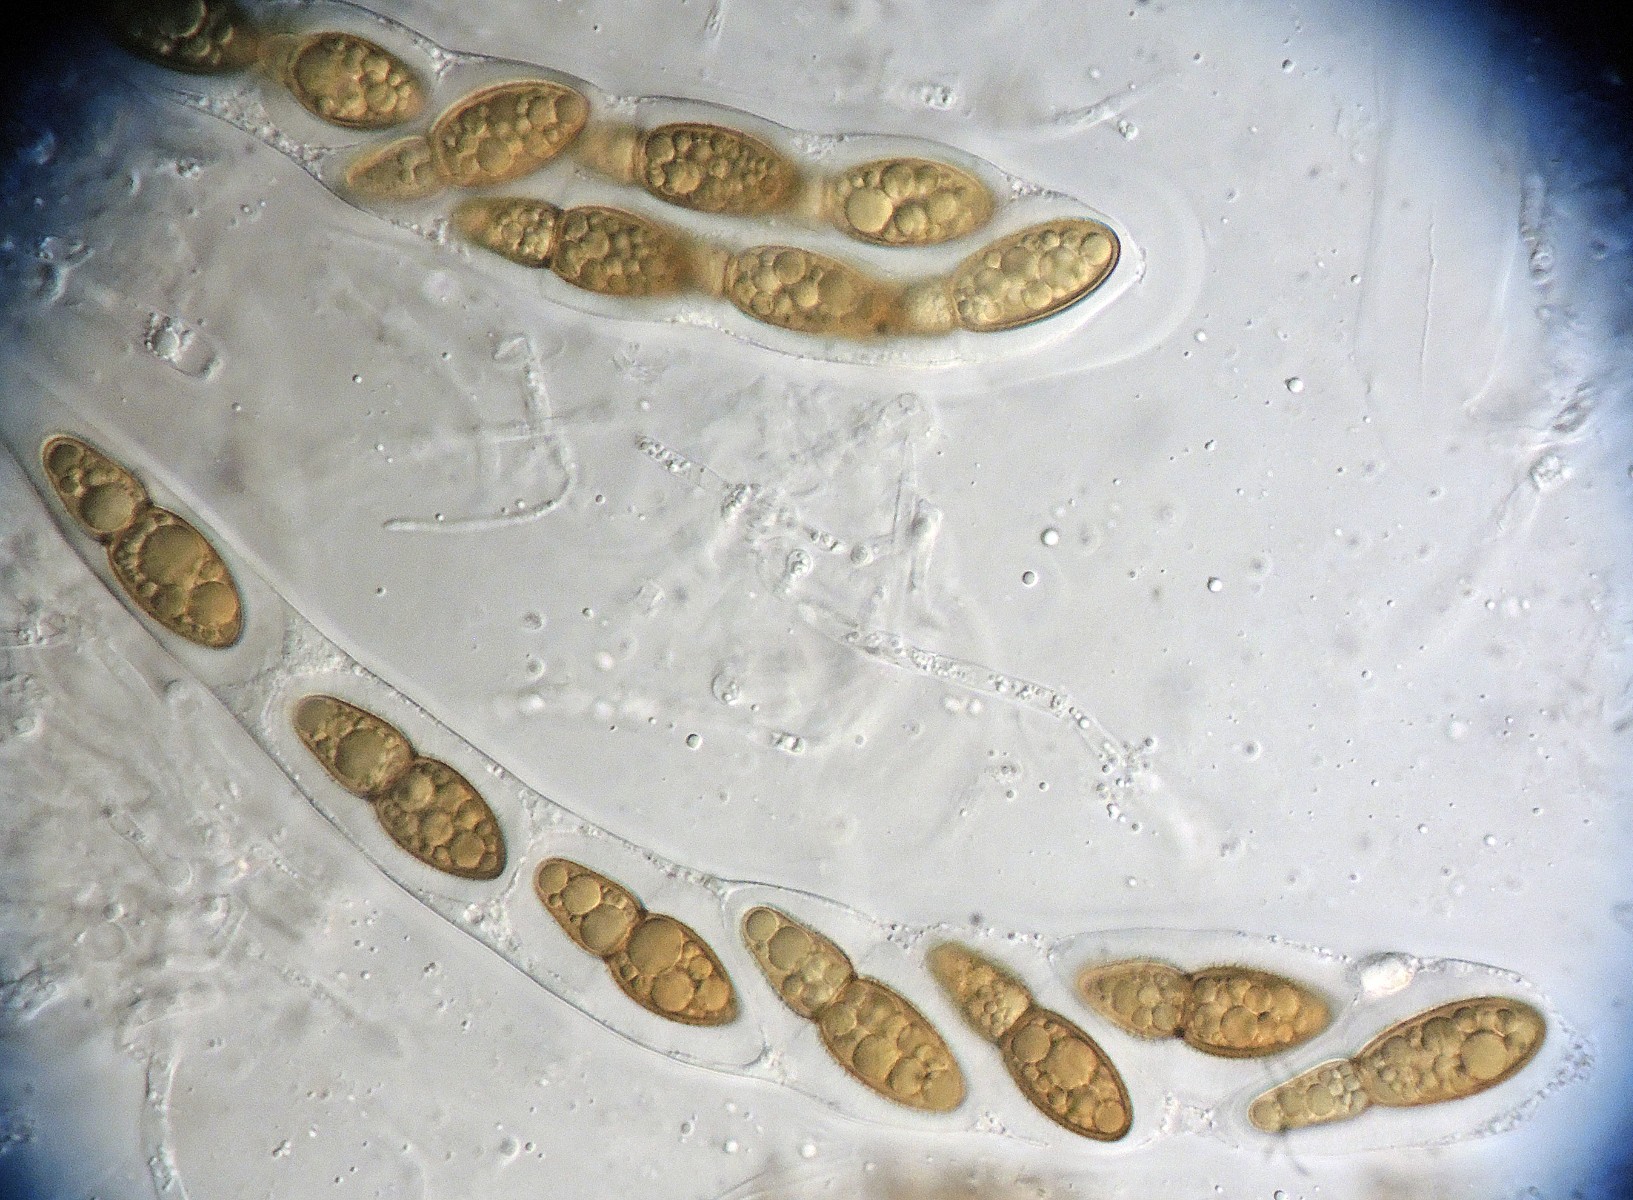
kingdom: Fungi
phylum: Ascomycota
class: Eurotiomycetes
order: Pyrenulales
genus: Splanchospora
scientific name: Splanchospora ampullacea
